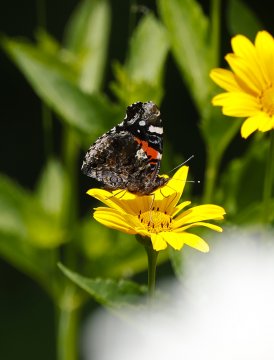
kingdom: Animalia
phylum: Arthropoda
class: Insecta
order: Lepidoptera
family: Nymphalidae
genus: Vanessa
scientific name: Vanessa atalanta
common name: Red Admiral
